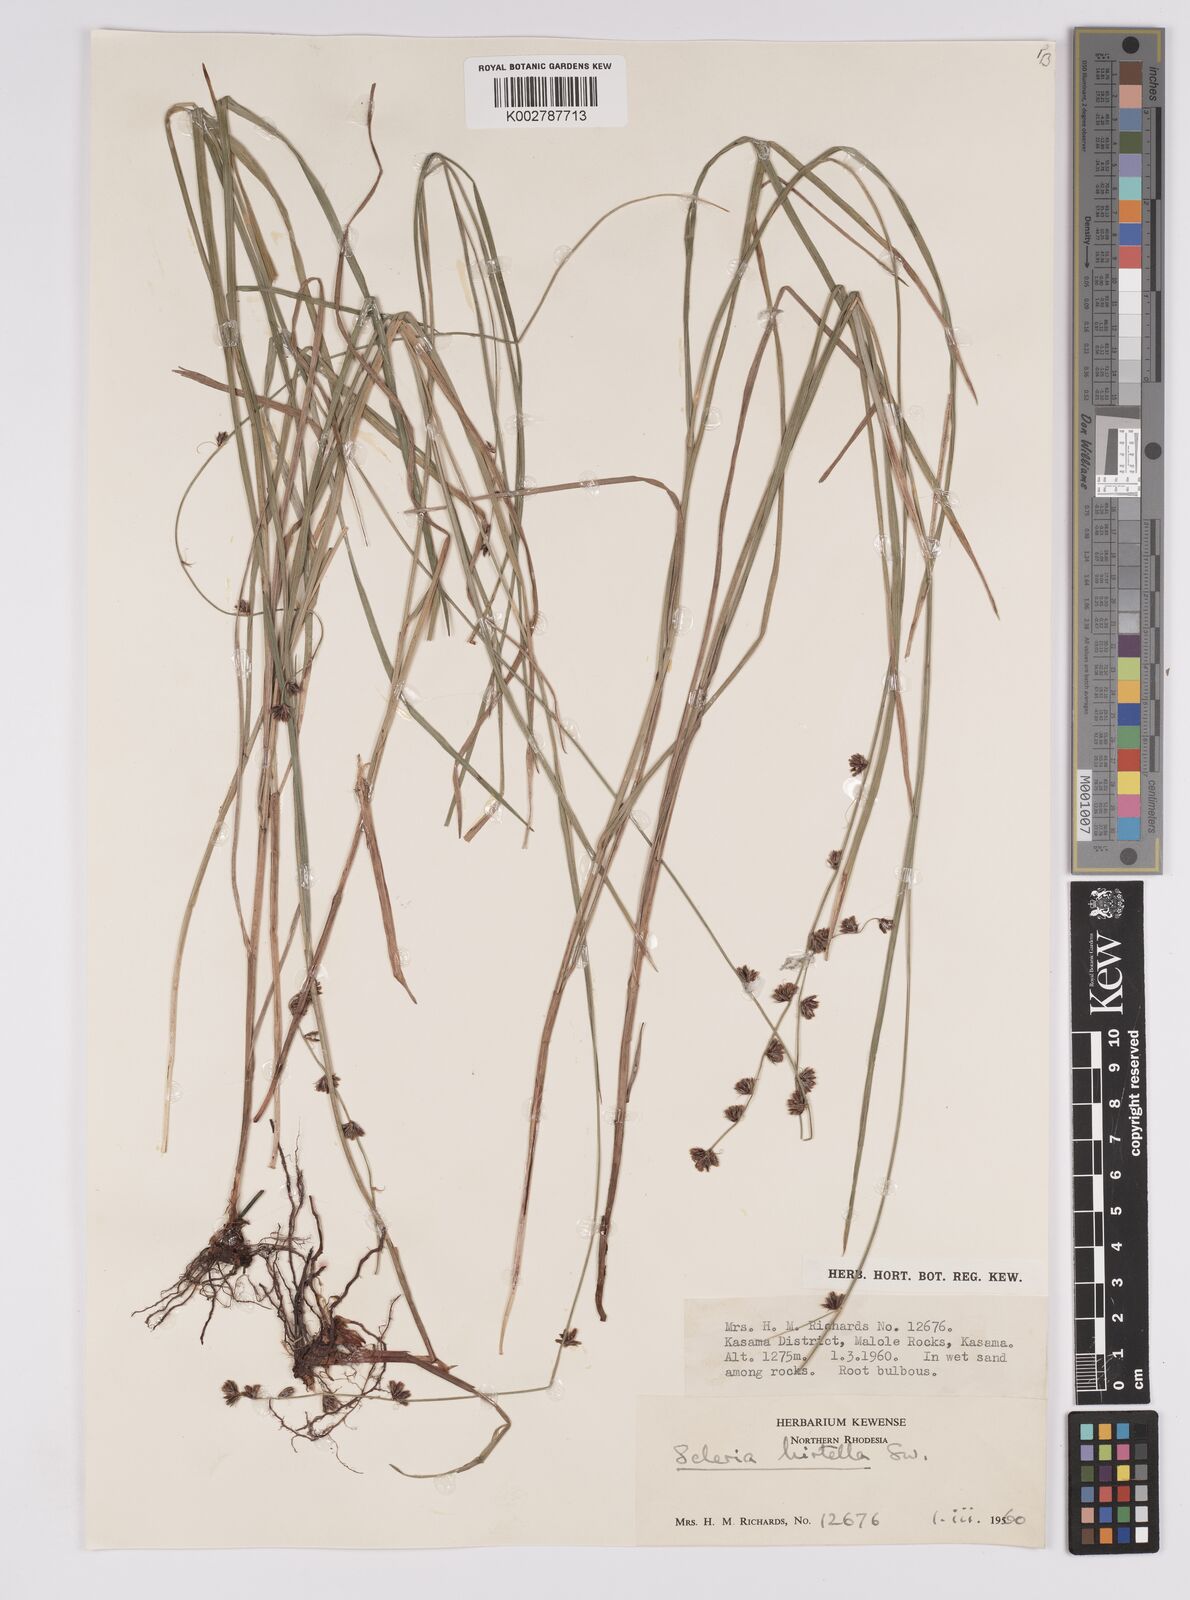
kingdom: Plantae
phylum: Tracheophyta
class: Liliopsida
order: Poales
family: Cyperaceae
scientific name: Cyperaceae
